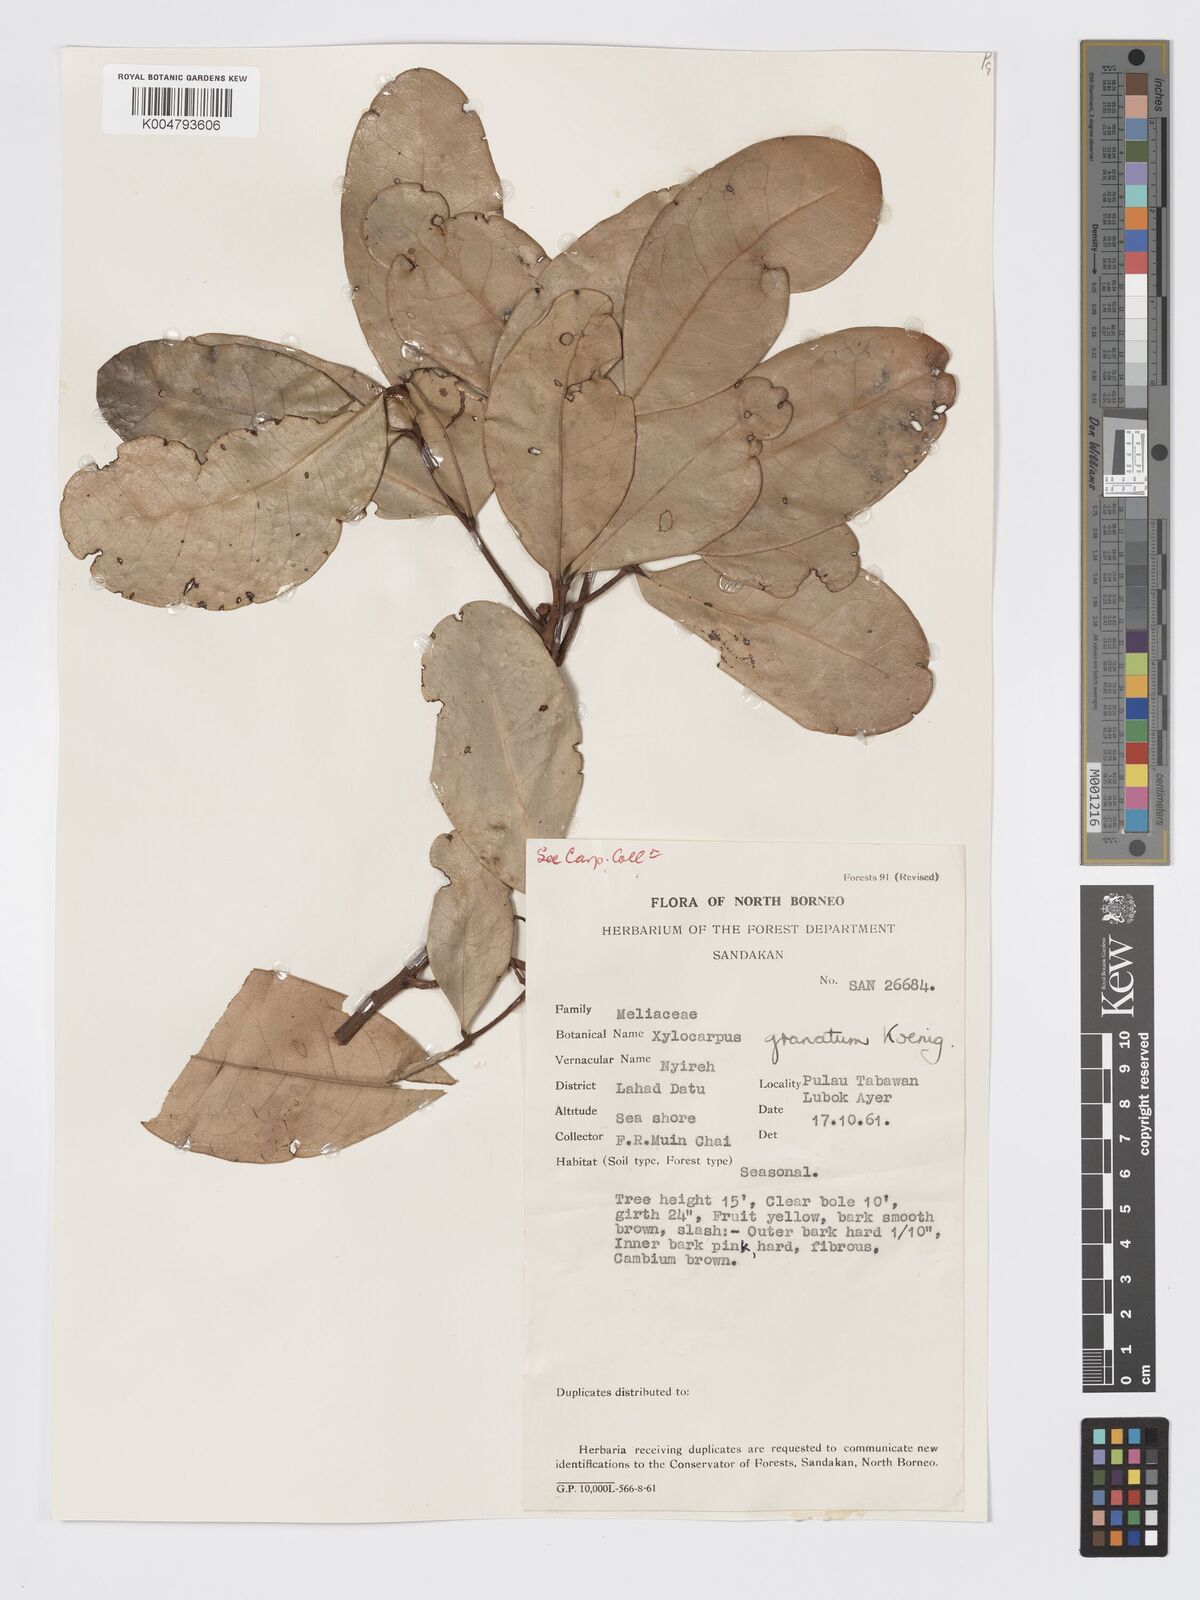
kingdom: Plantae
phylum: Tracheophyta
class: Magnoliopsida
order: Sapindales
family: Meliaceae
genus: Xylocarpus
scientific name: Xylocarpus granatum
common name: Apple mangrove
